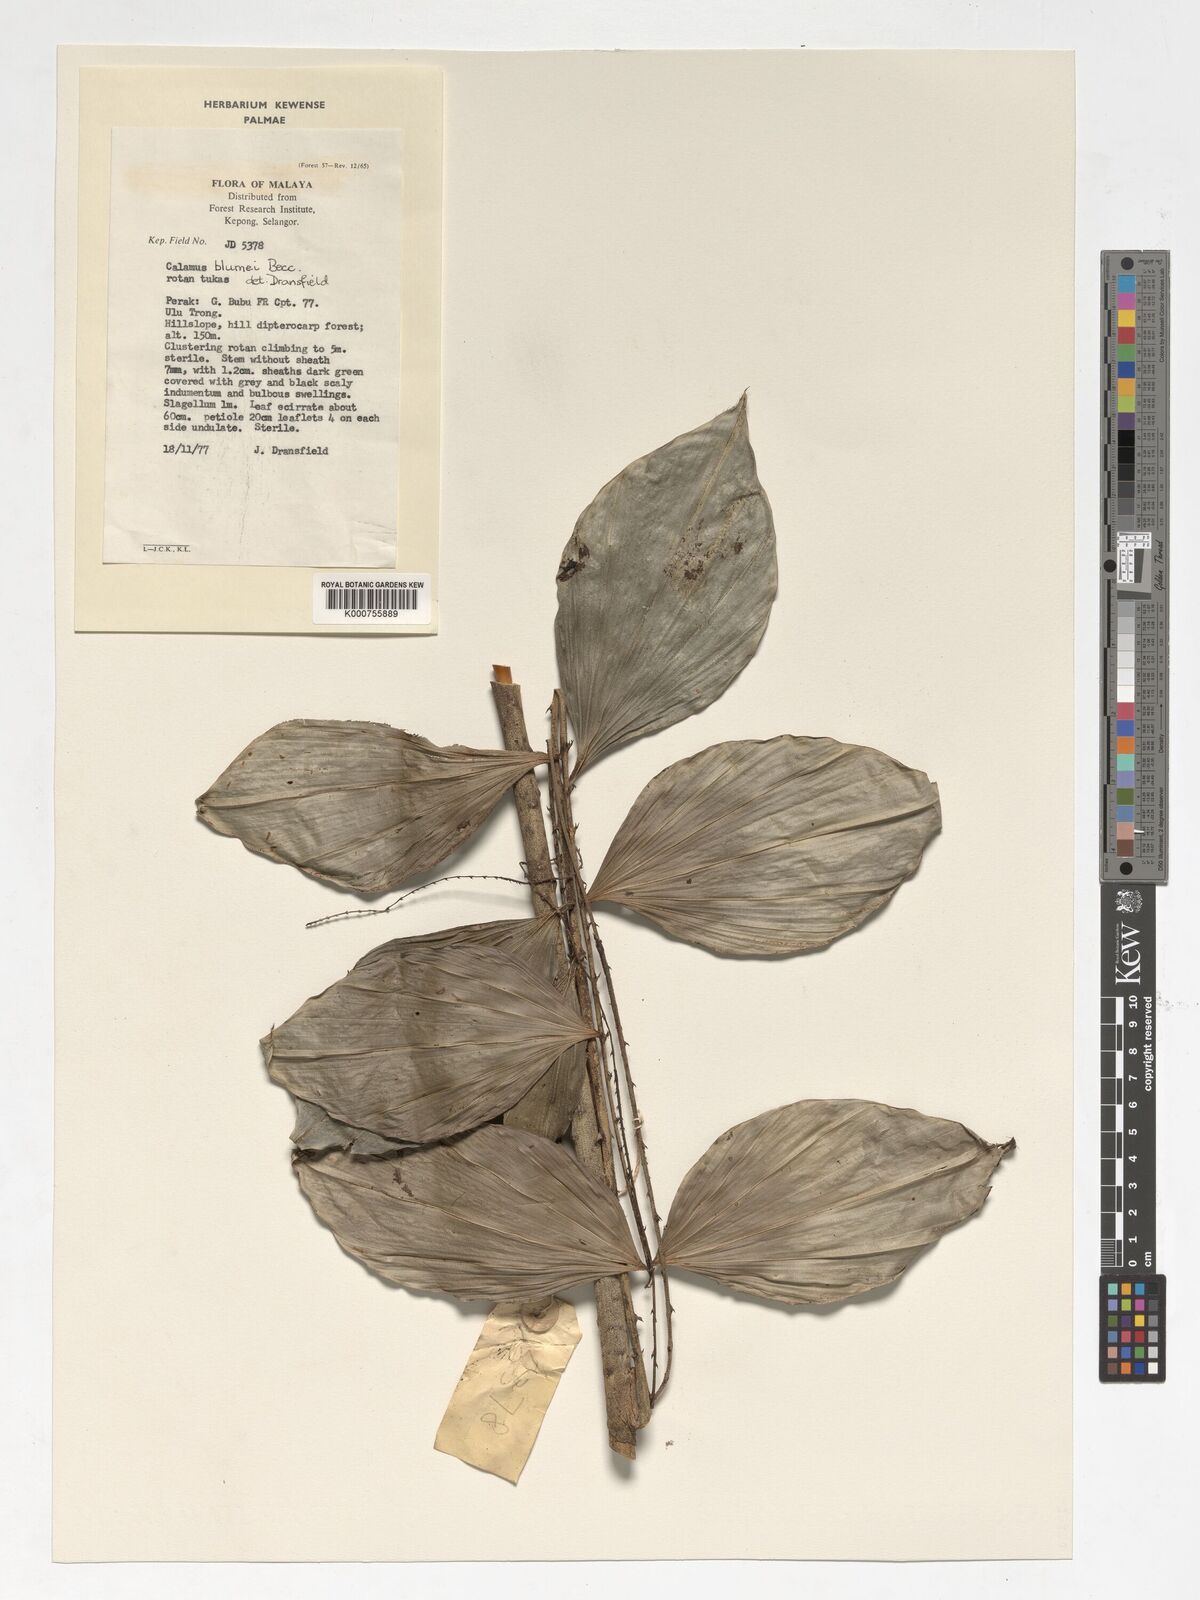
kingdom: Plantae
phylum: Tracheophyta
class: Liliopsida
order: Arecales
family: Arecaceae
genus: Calamus
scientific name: Calamus rhomboideus
